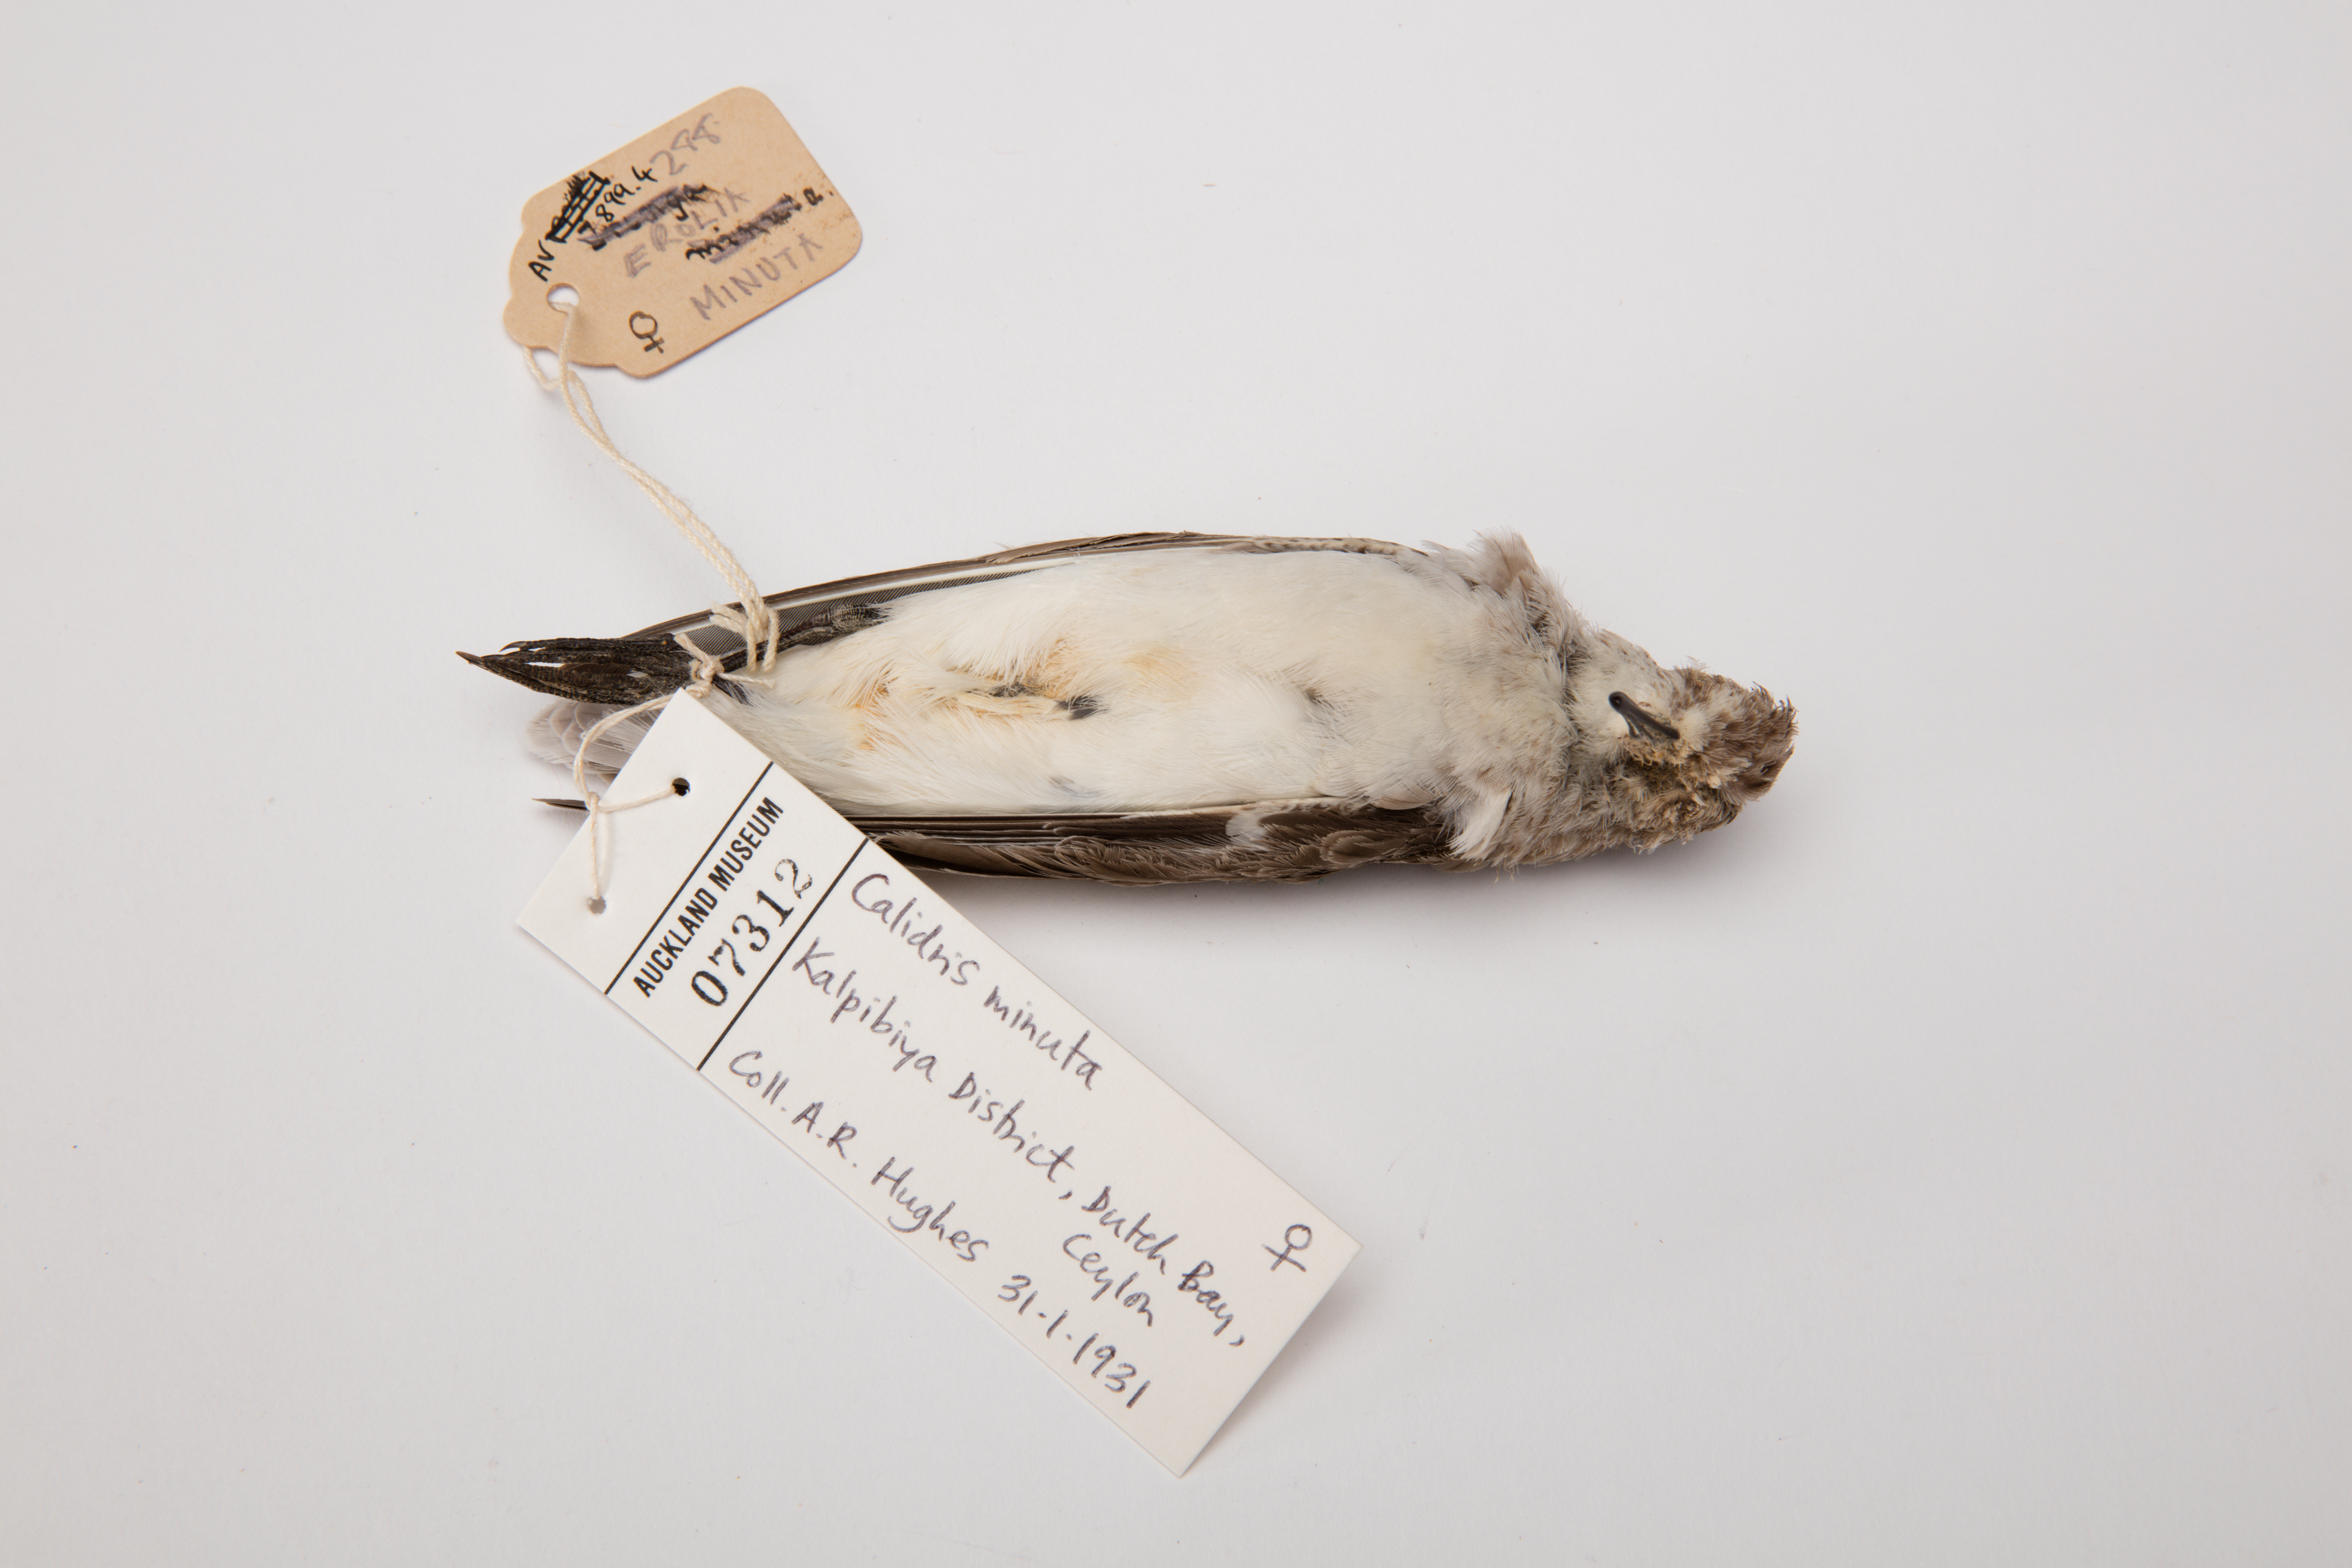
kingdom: Animalia
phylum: Chordata
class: Aves
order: Charadriiformes
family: Scolopacidae
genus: Calidris
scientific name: Calidris minuta
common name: Little stint
